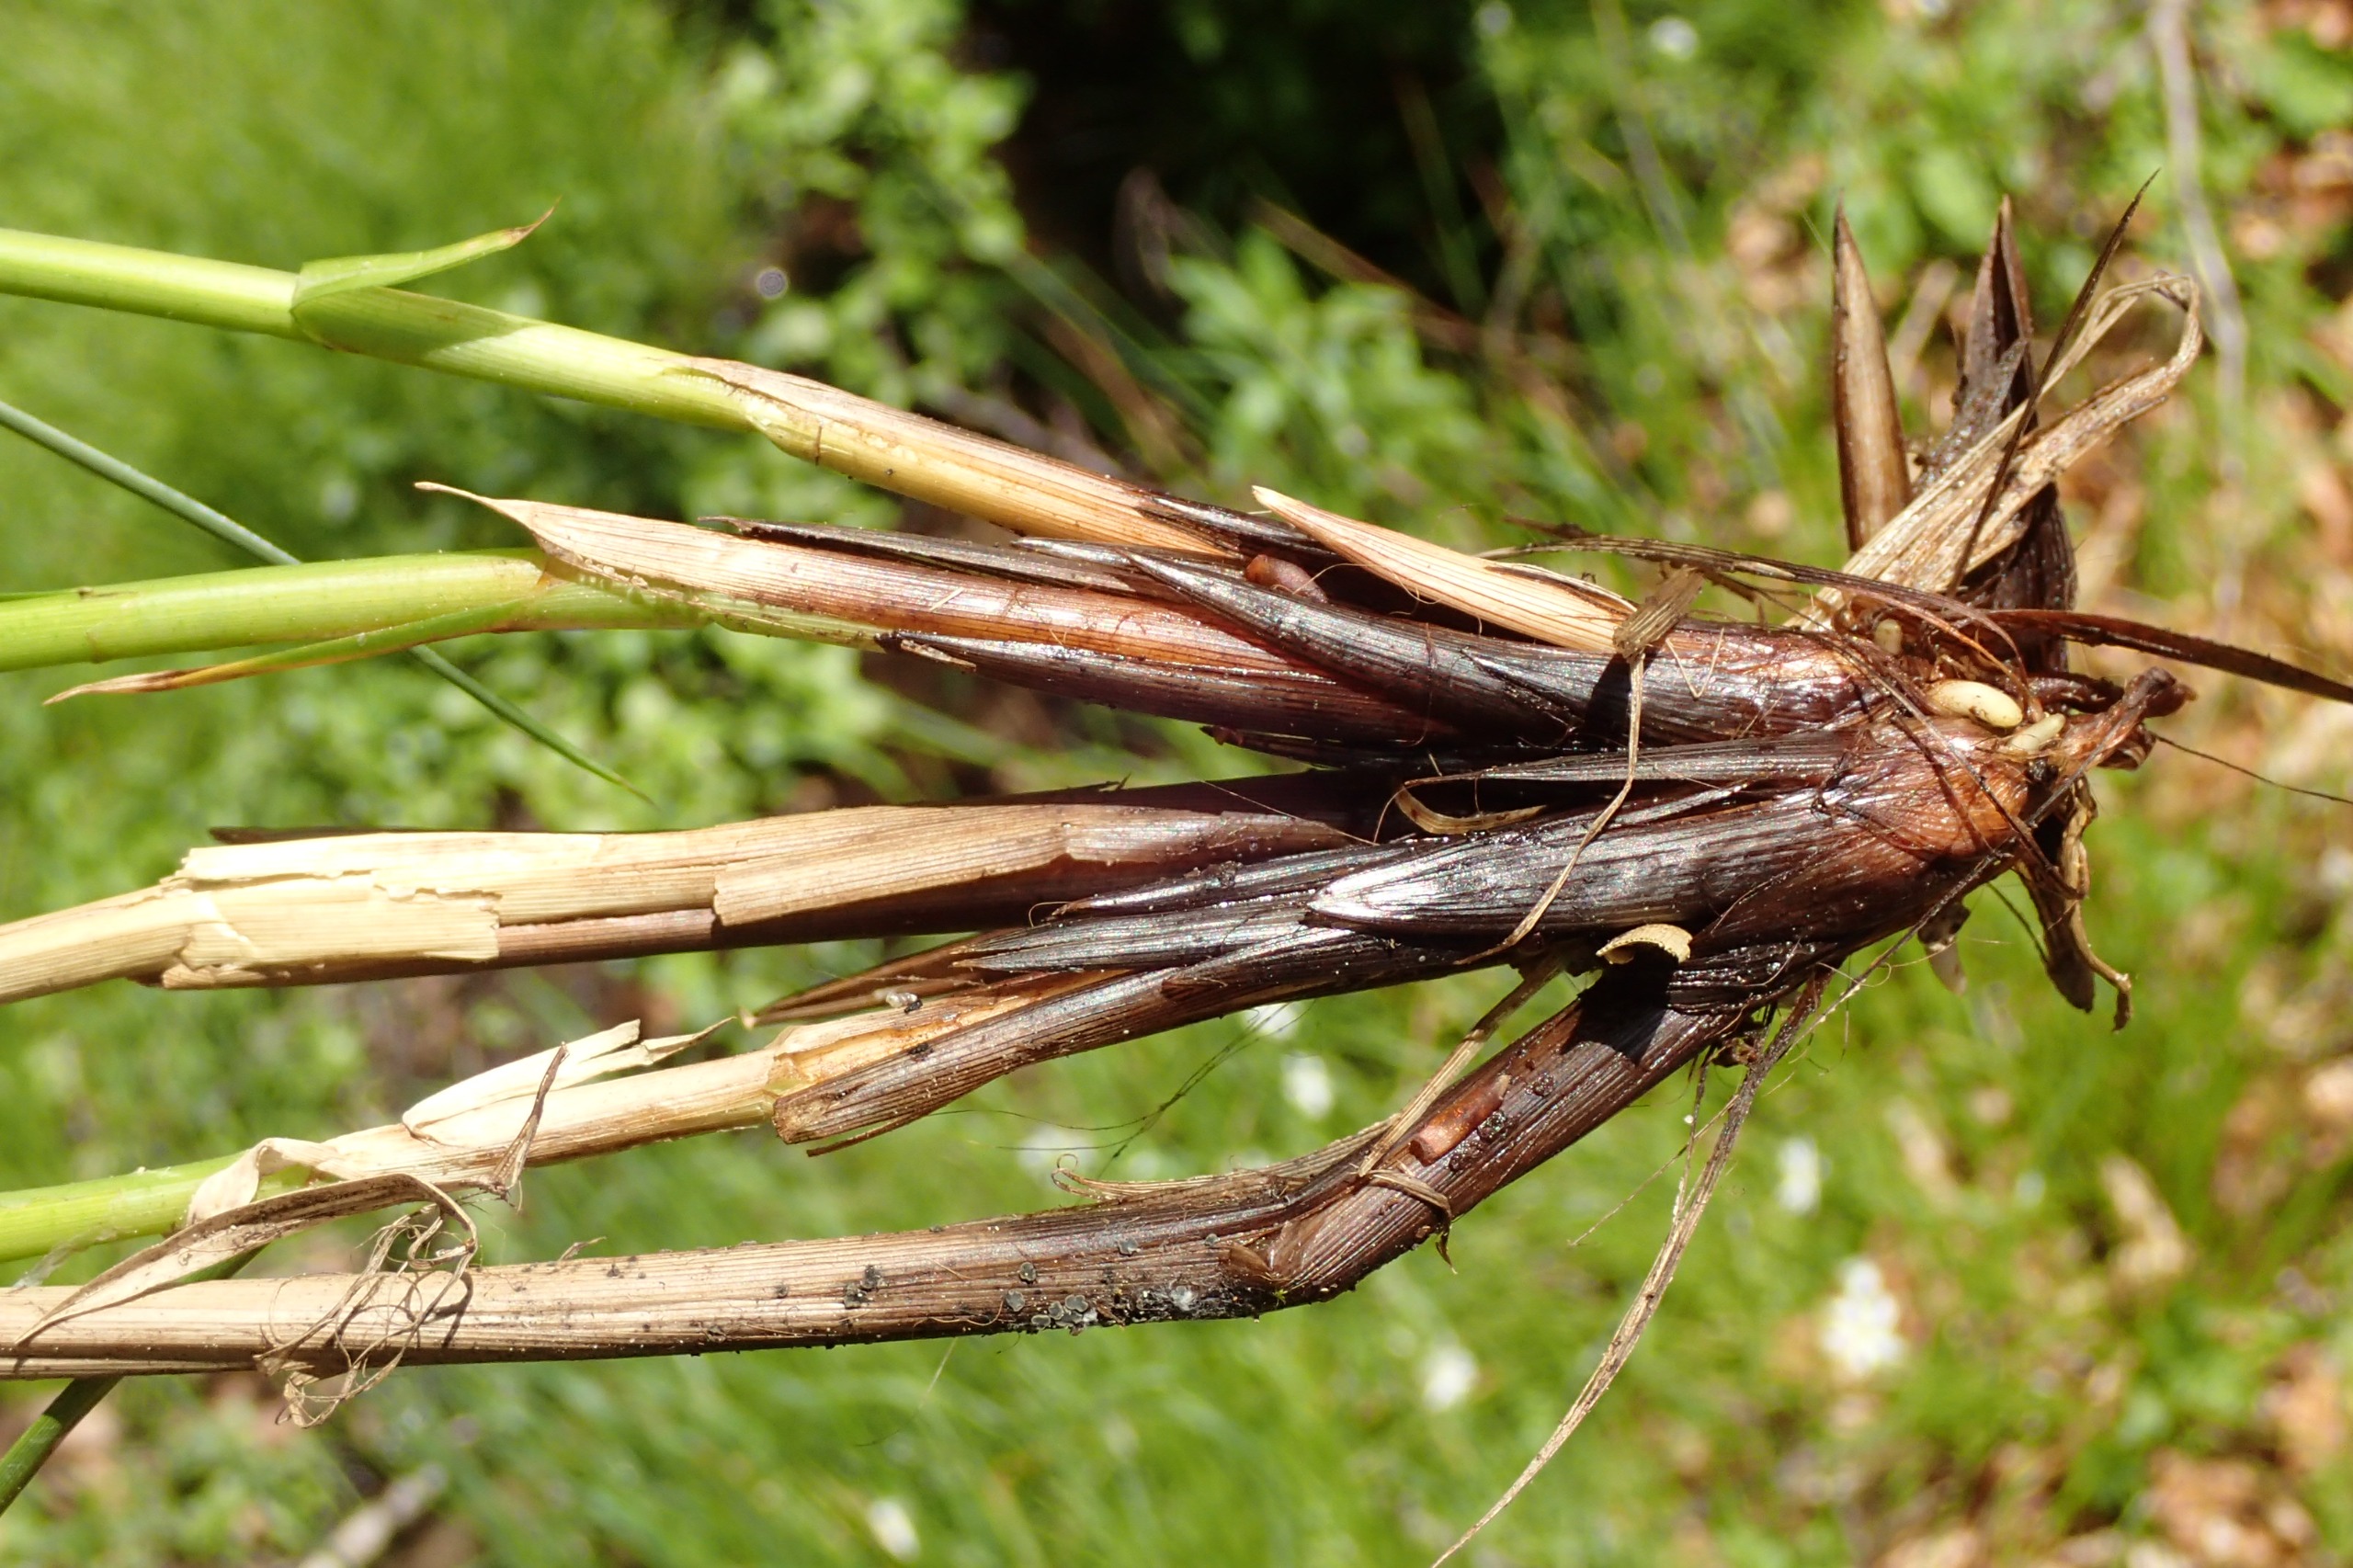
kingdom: Plantae
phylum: Tracheophyta
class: Liliopsida
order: Poales
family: Cyperaceae
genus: Carex
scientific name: Carex paniculata
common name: Top-star
